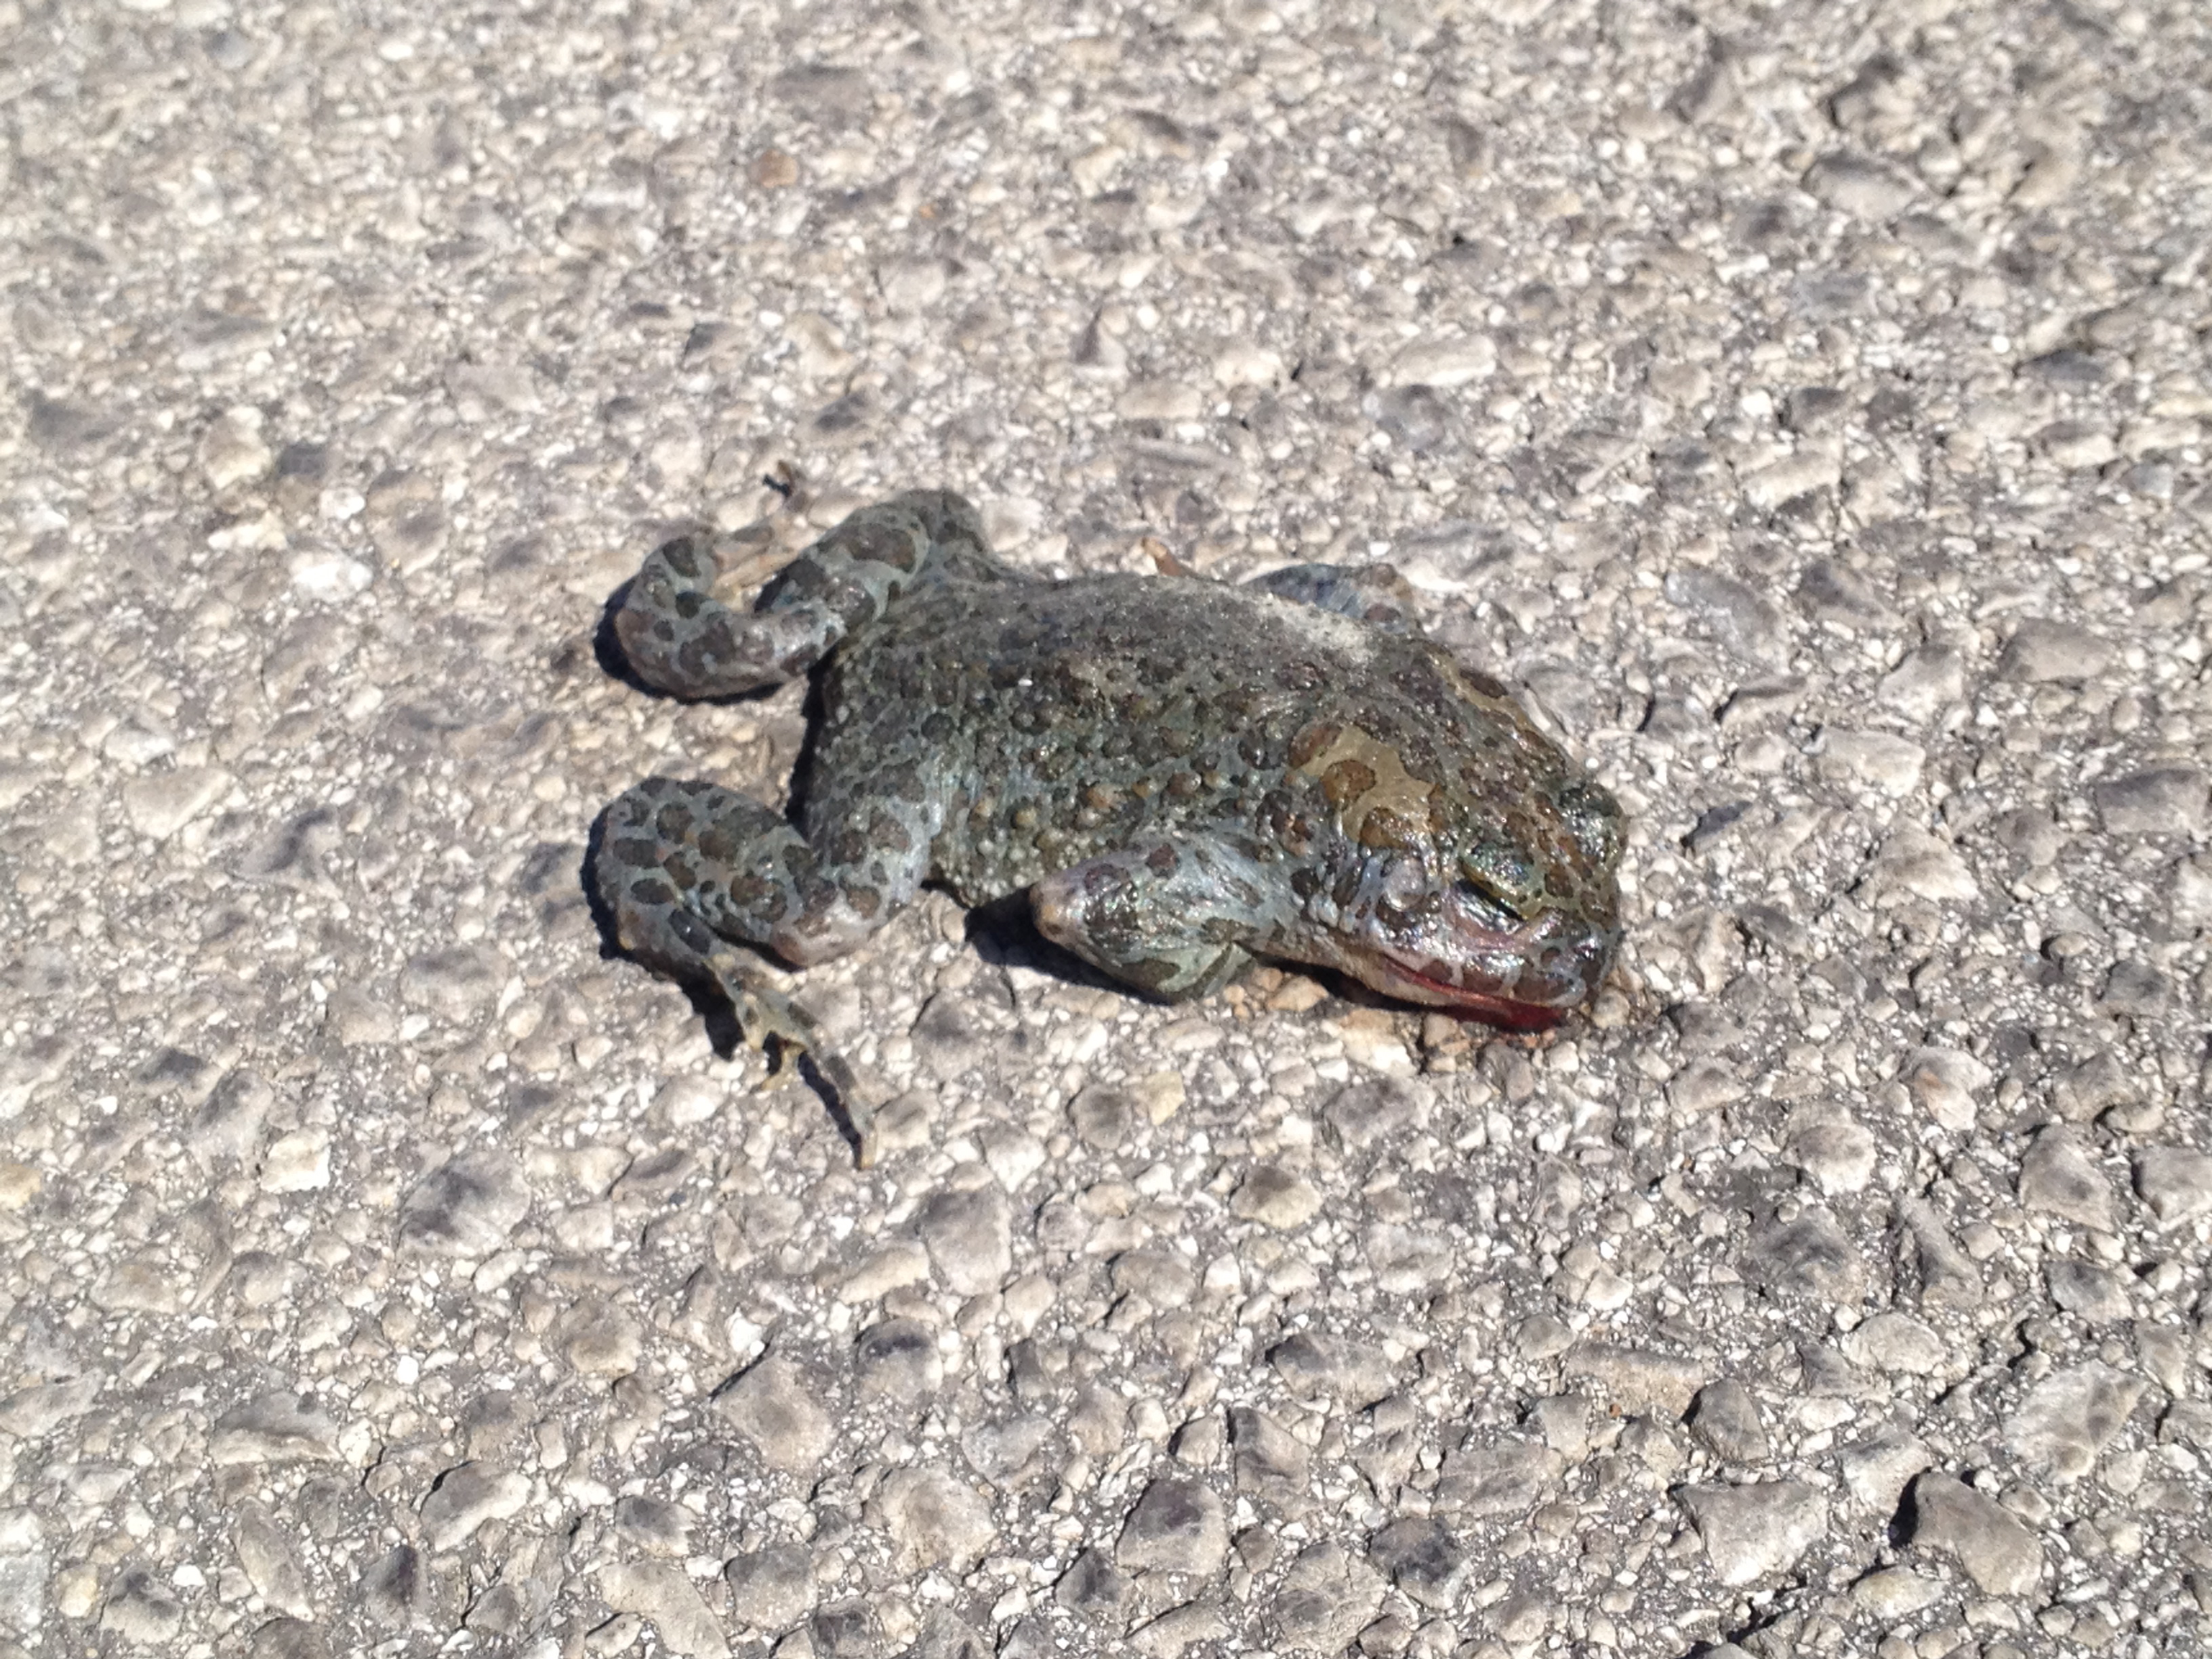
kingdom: Animalia
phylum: Chordata
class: Amphibia
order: Anura
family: Bufonidae
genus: Bufotes
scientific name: Bufotes viridis
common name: European green toad
